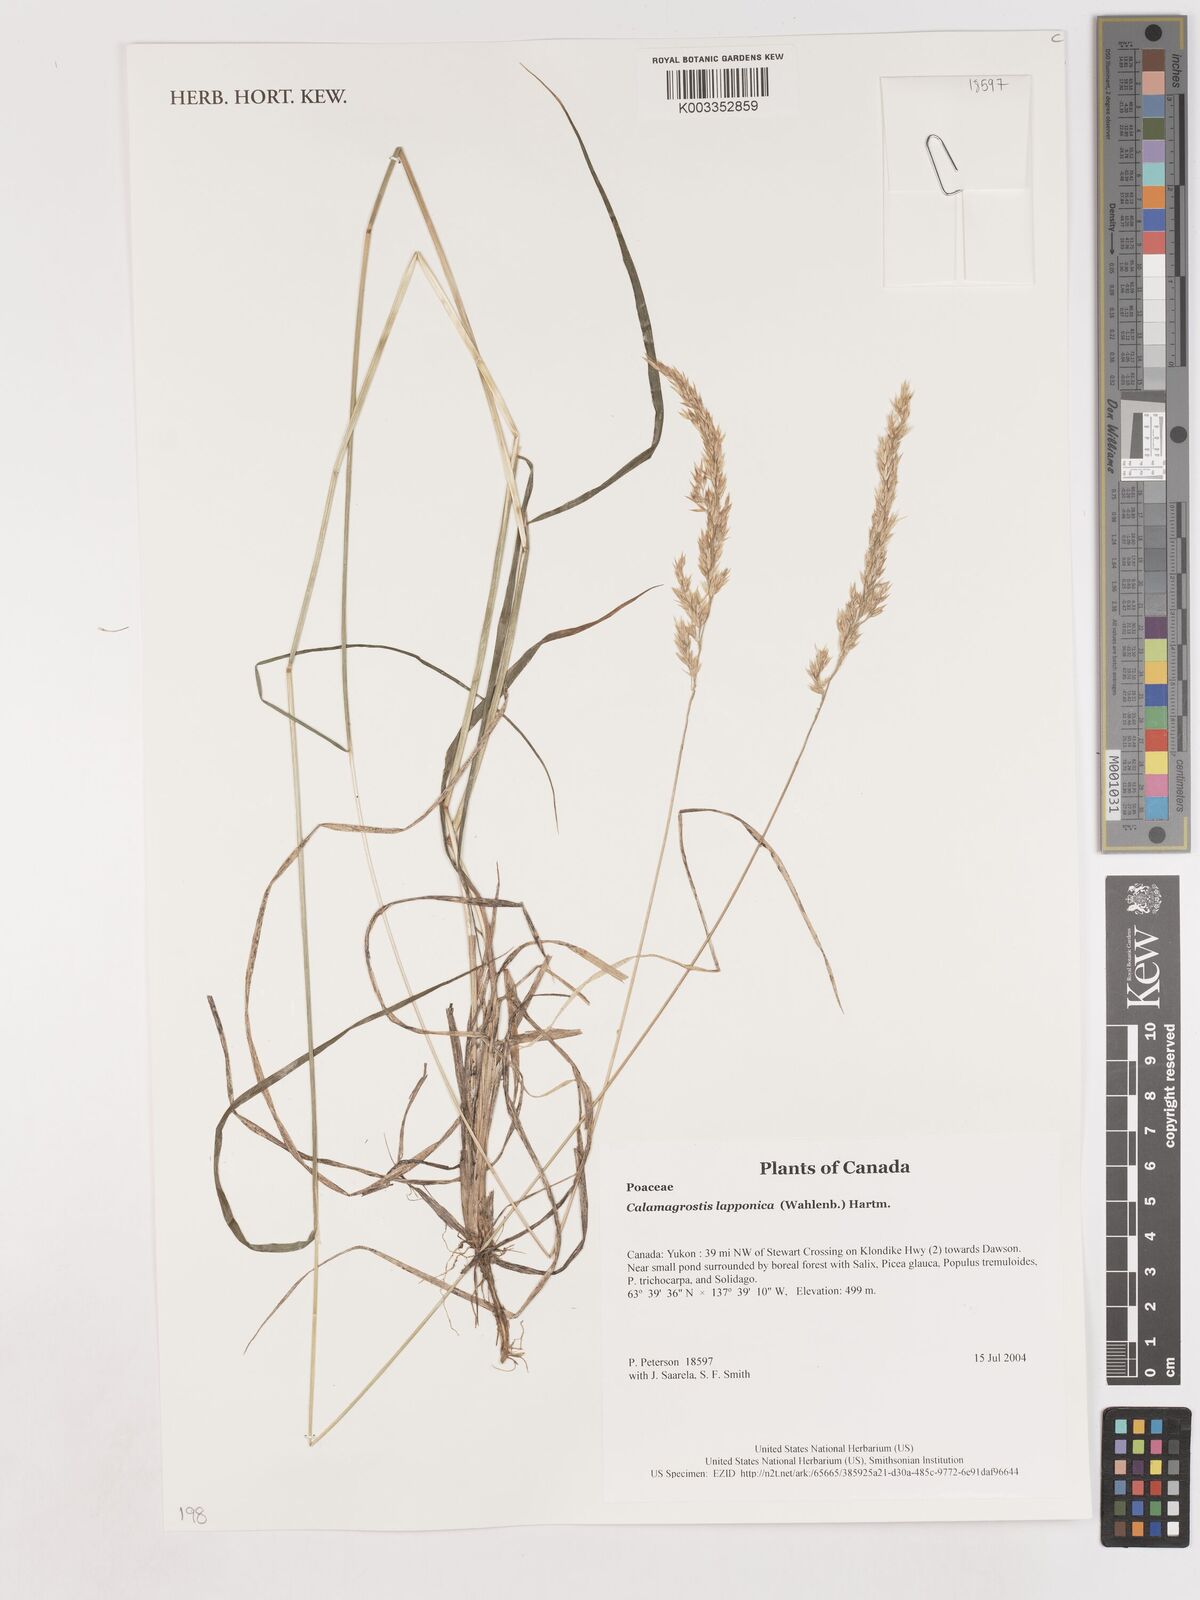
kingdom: Plantae
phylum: Tracheophyta
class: Liliopsida
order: Poales
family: Poaceae
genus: Calamagrostis
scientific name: Calamagrostis lapponica
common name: Lapland reedgrass
